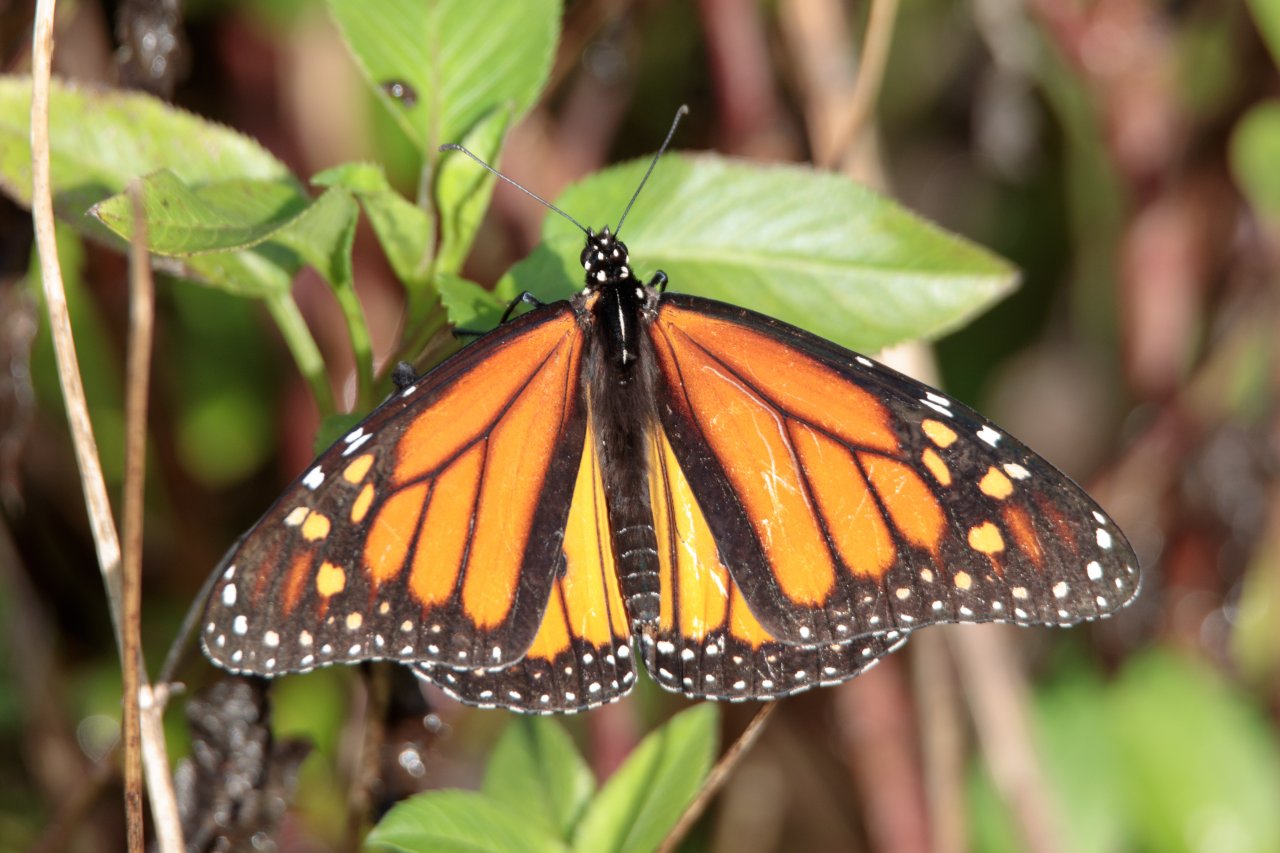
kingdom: Animalia
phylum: Arthropoda
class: Insecta
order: Lepidoptera
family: Nymphalidae
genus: Danaus
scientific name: Danaus plexippus
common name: Monarch
